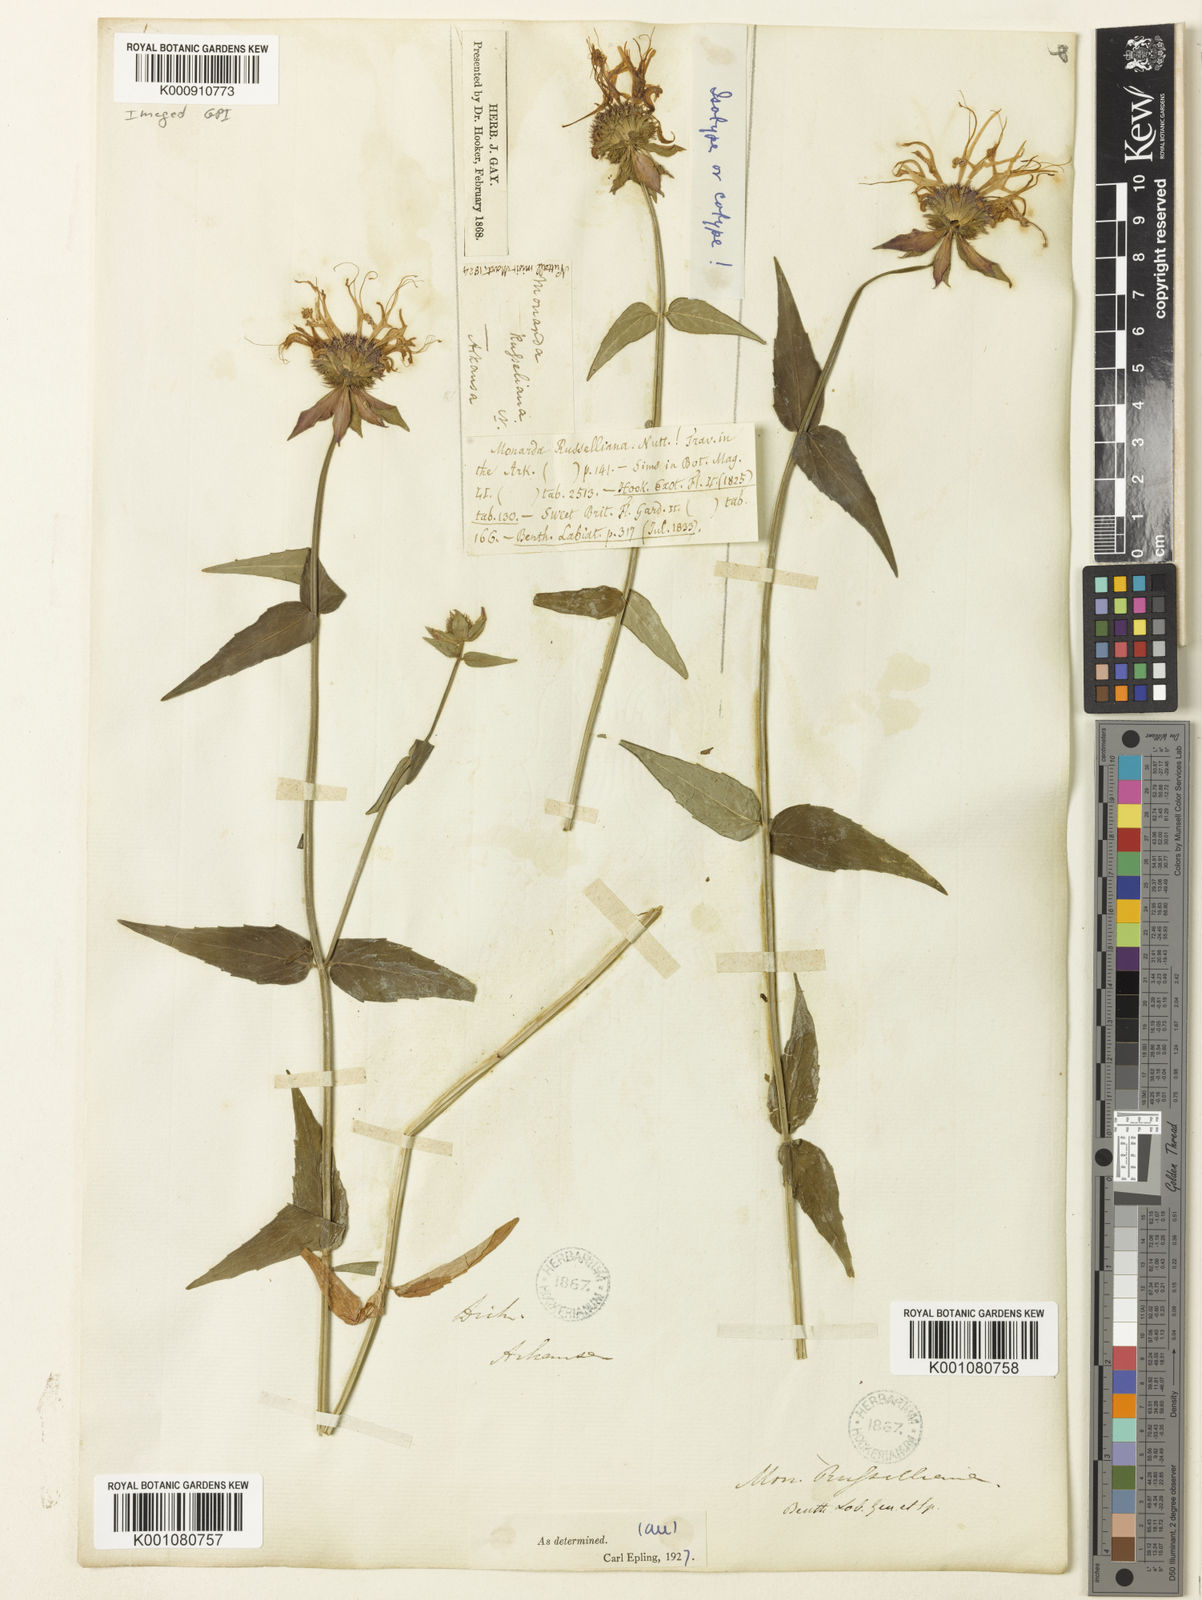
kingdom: Plantae
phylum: Tracheophyta
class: Magnoliopsida
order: Lamiales
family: Lamiaceae
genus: Monarda
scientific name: Monarda
